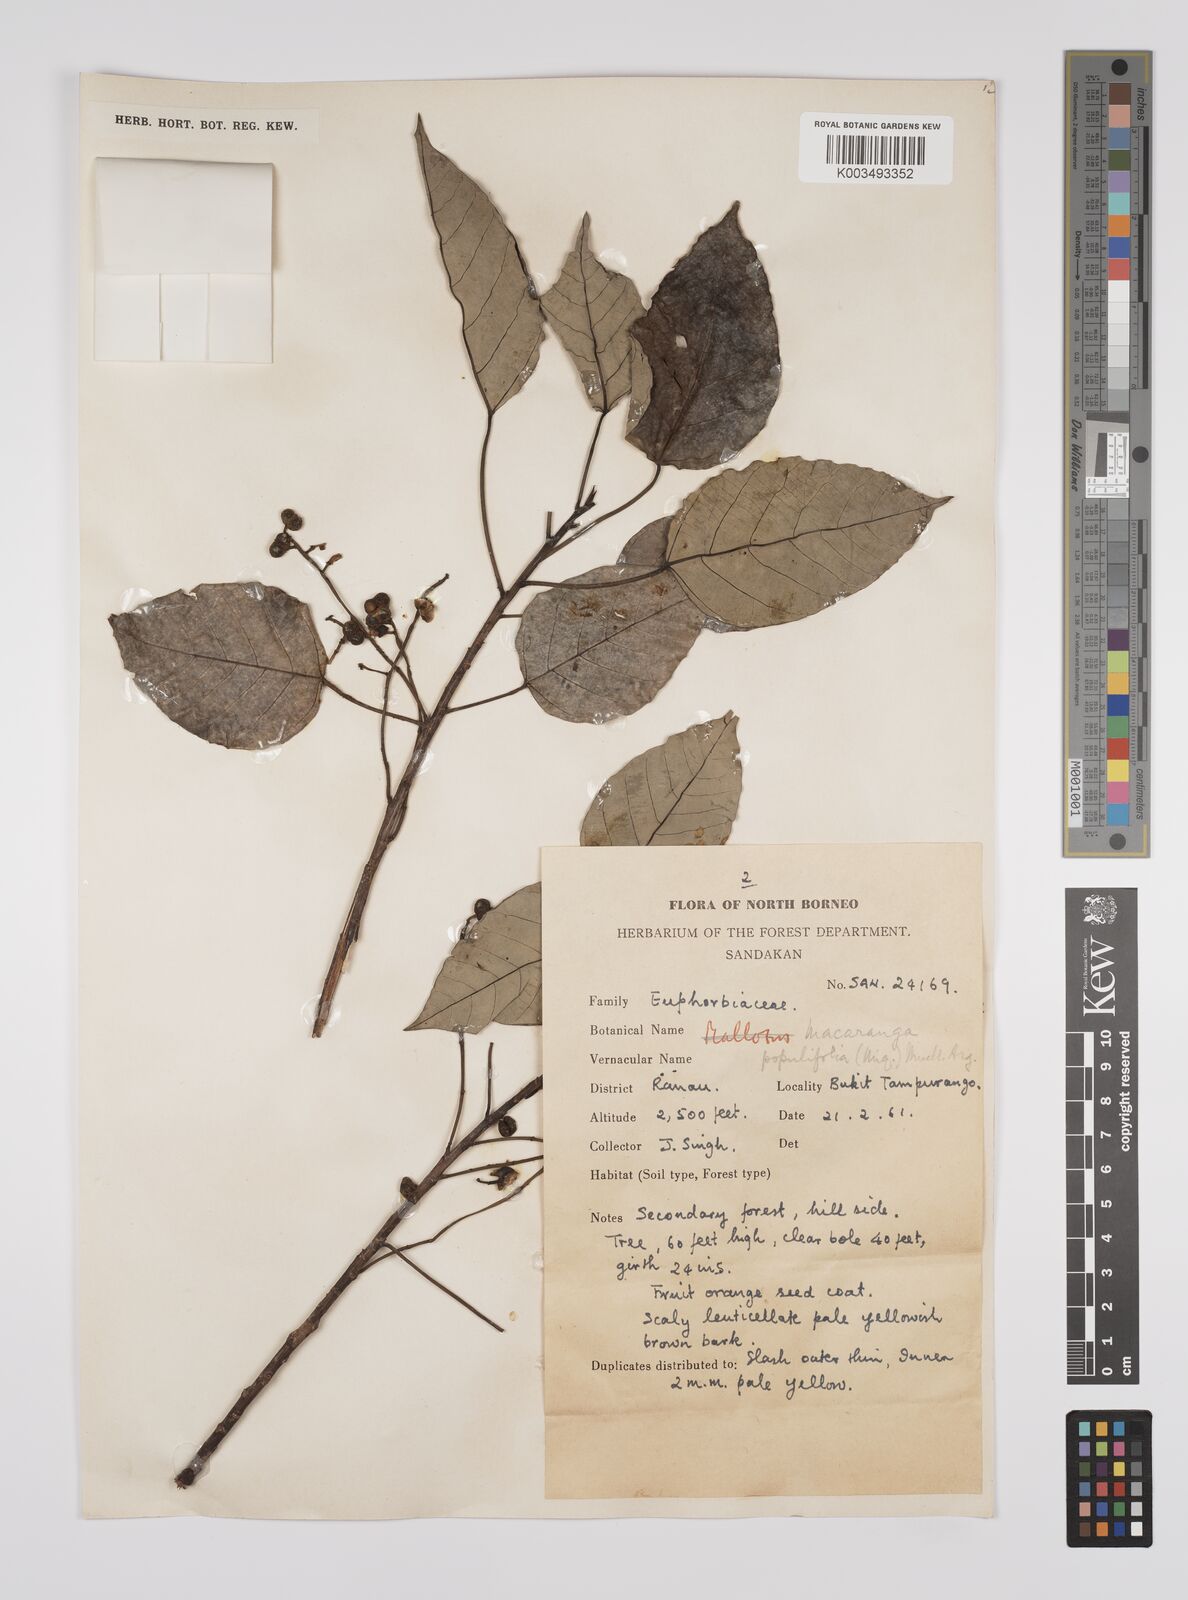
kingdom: Plantae
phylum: Tracheophyta
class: Magnoliopsida
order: Malpighiales
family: Euphorbiaceae
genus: Macaranga
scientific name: Macaranga conifera
